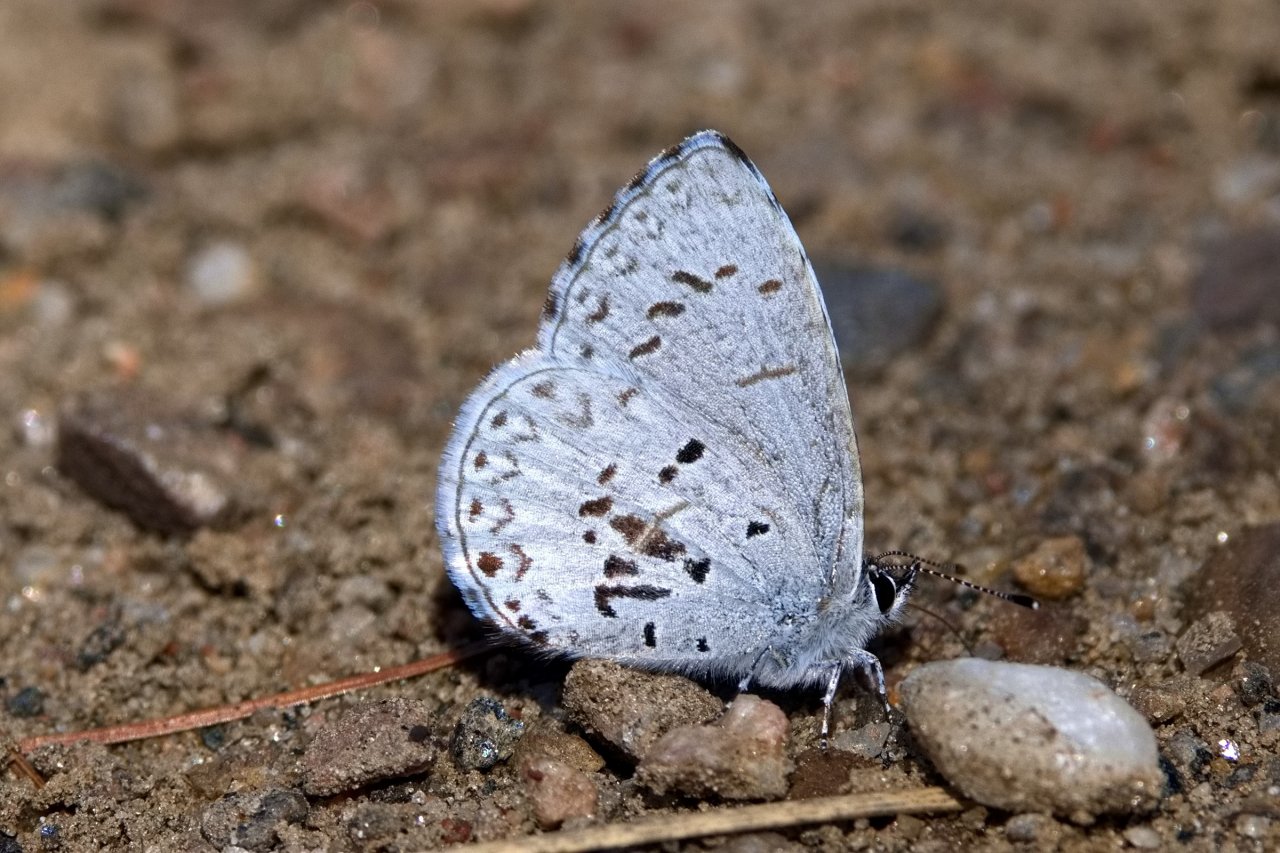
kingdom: Animalia
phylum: Arthropoda
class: Insecta
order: Lepidoptera
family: Lycaenidae
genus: Celastrina
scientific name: Celastrina
